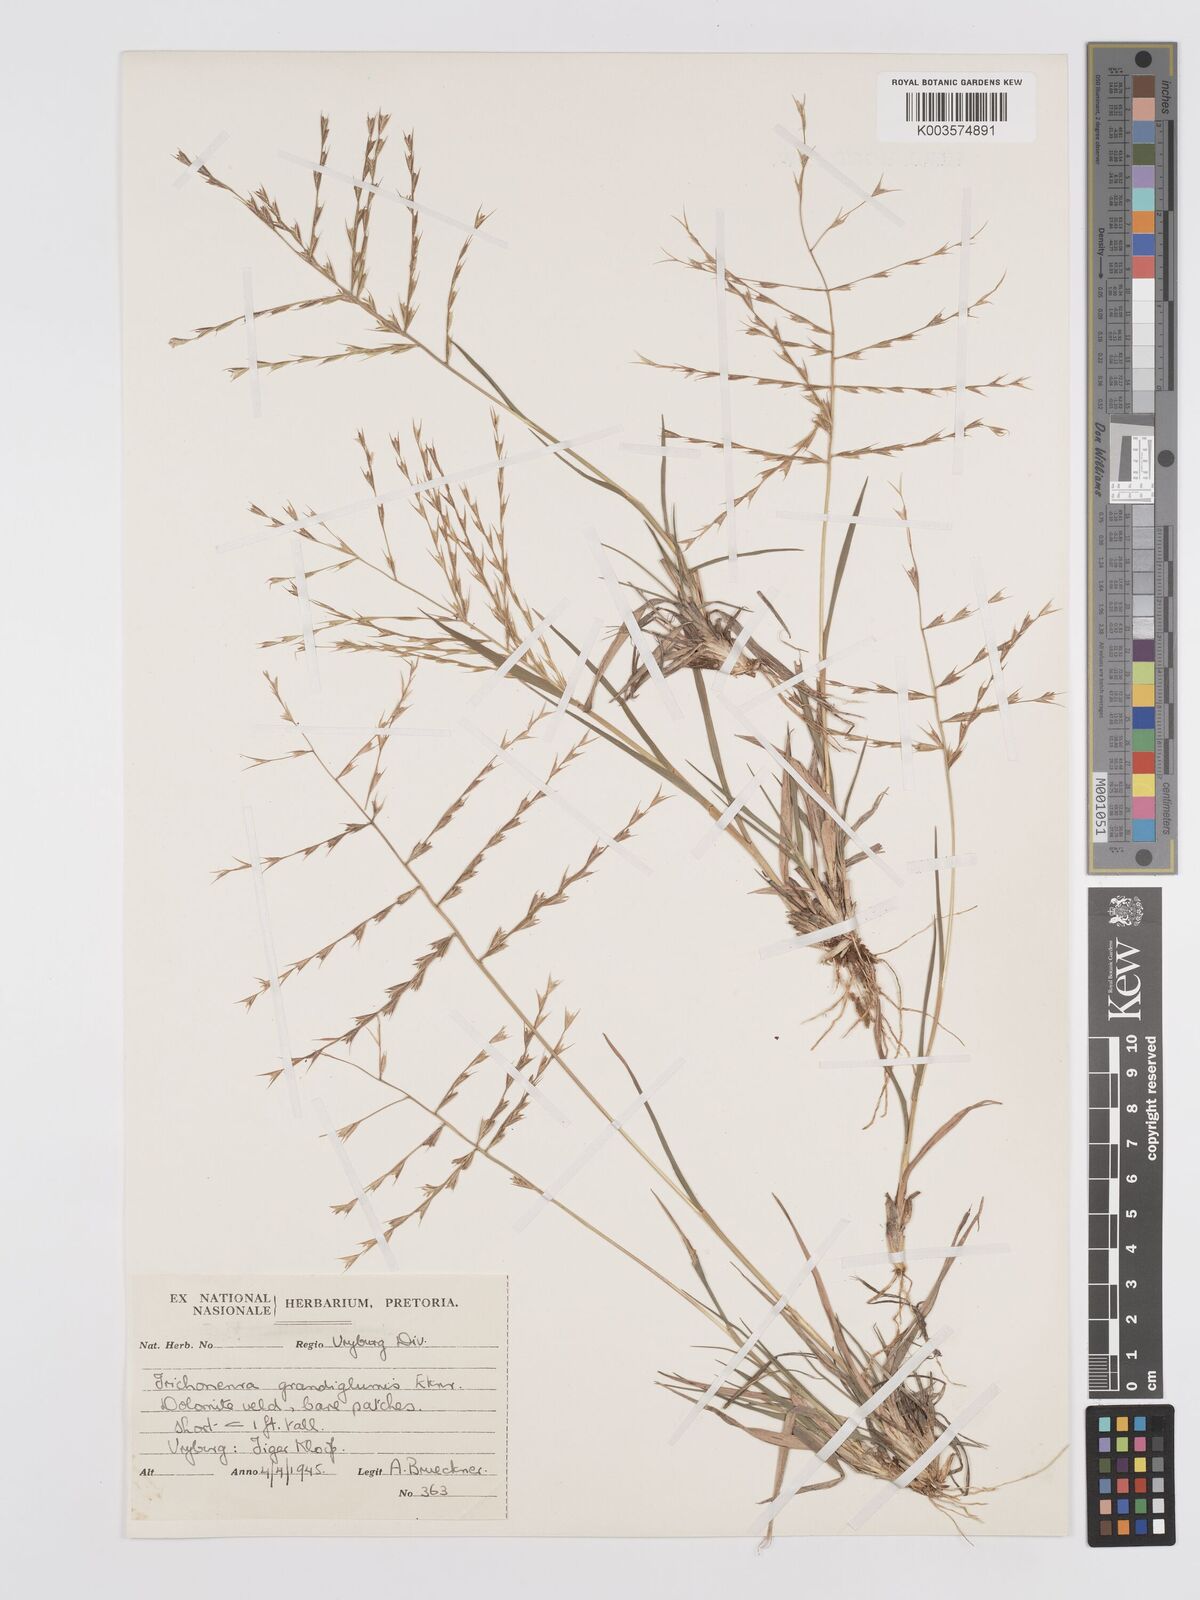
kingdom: Plantae
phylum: Tracheophyta
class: Liliopsida
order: Poales
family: Poaceae
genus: Trichoneura
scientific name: Trichoneura grandiglumis
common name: Rolling grass
